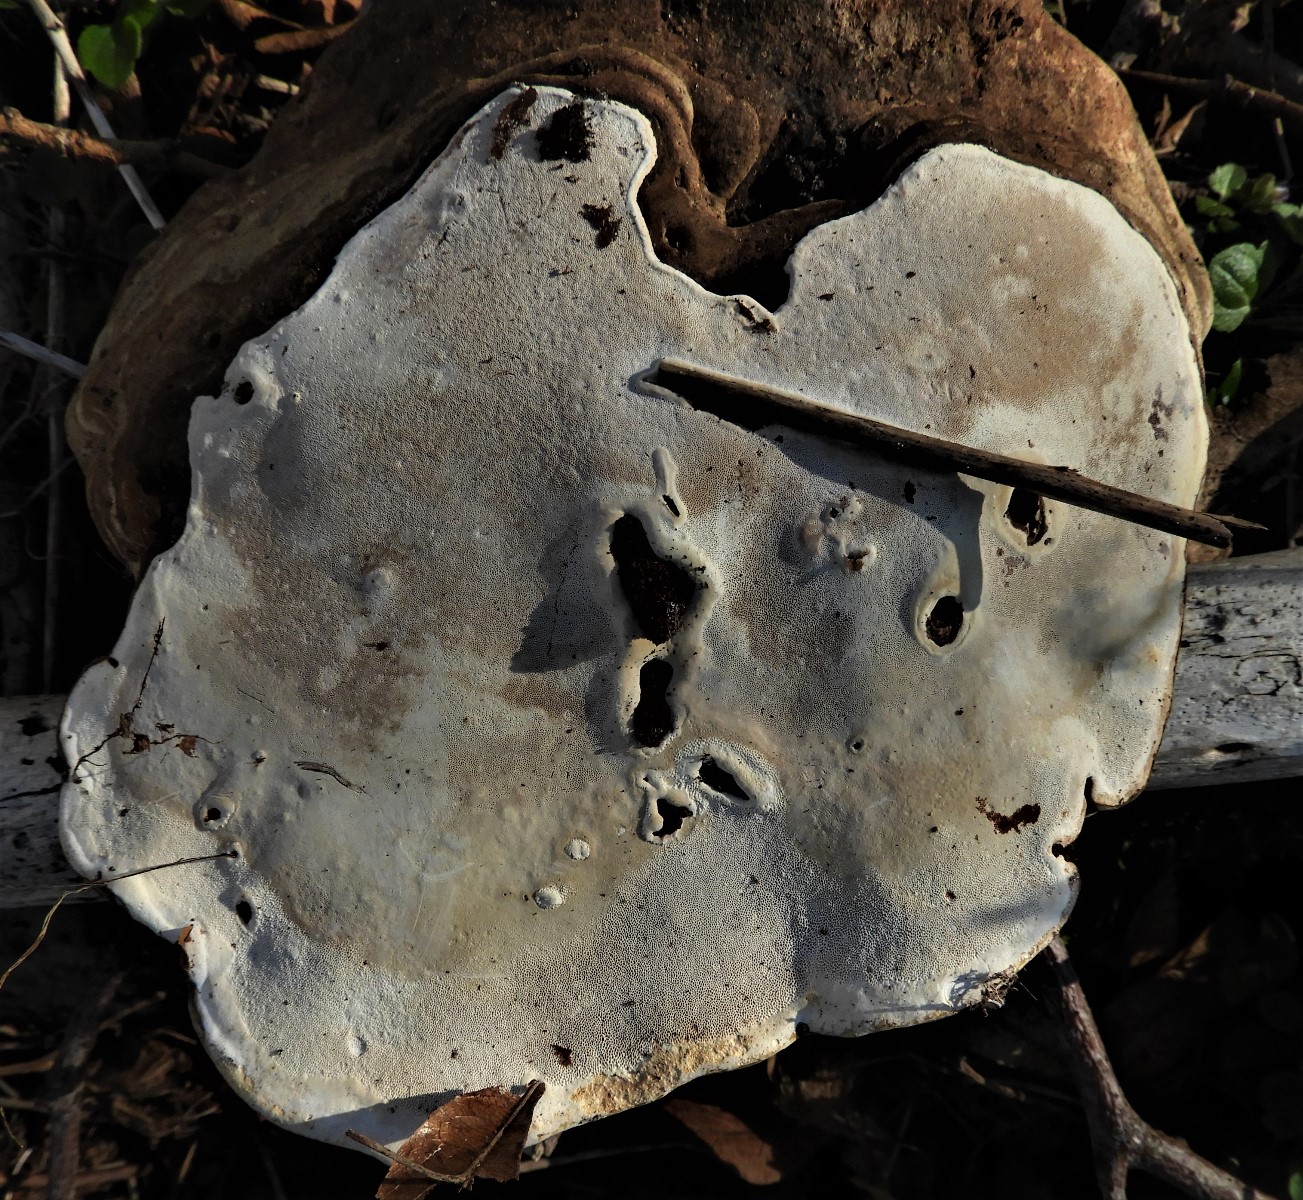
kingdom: Fungi
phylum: Basidiomycota
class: Agaricomycetes
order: Polyporales
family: Polyporaceae
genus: Ganoderma
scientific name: Ganoderma applanatum
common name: flad lakporesvamp
